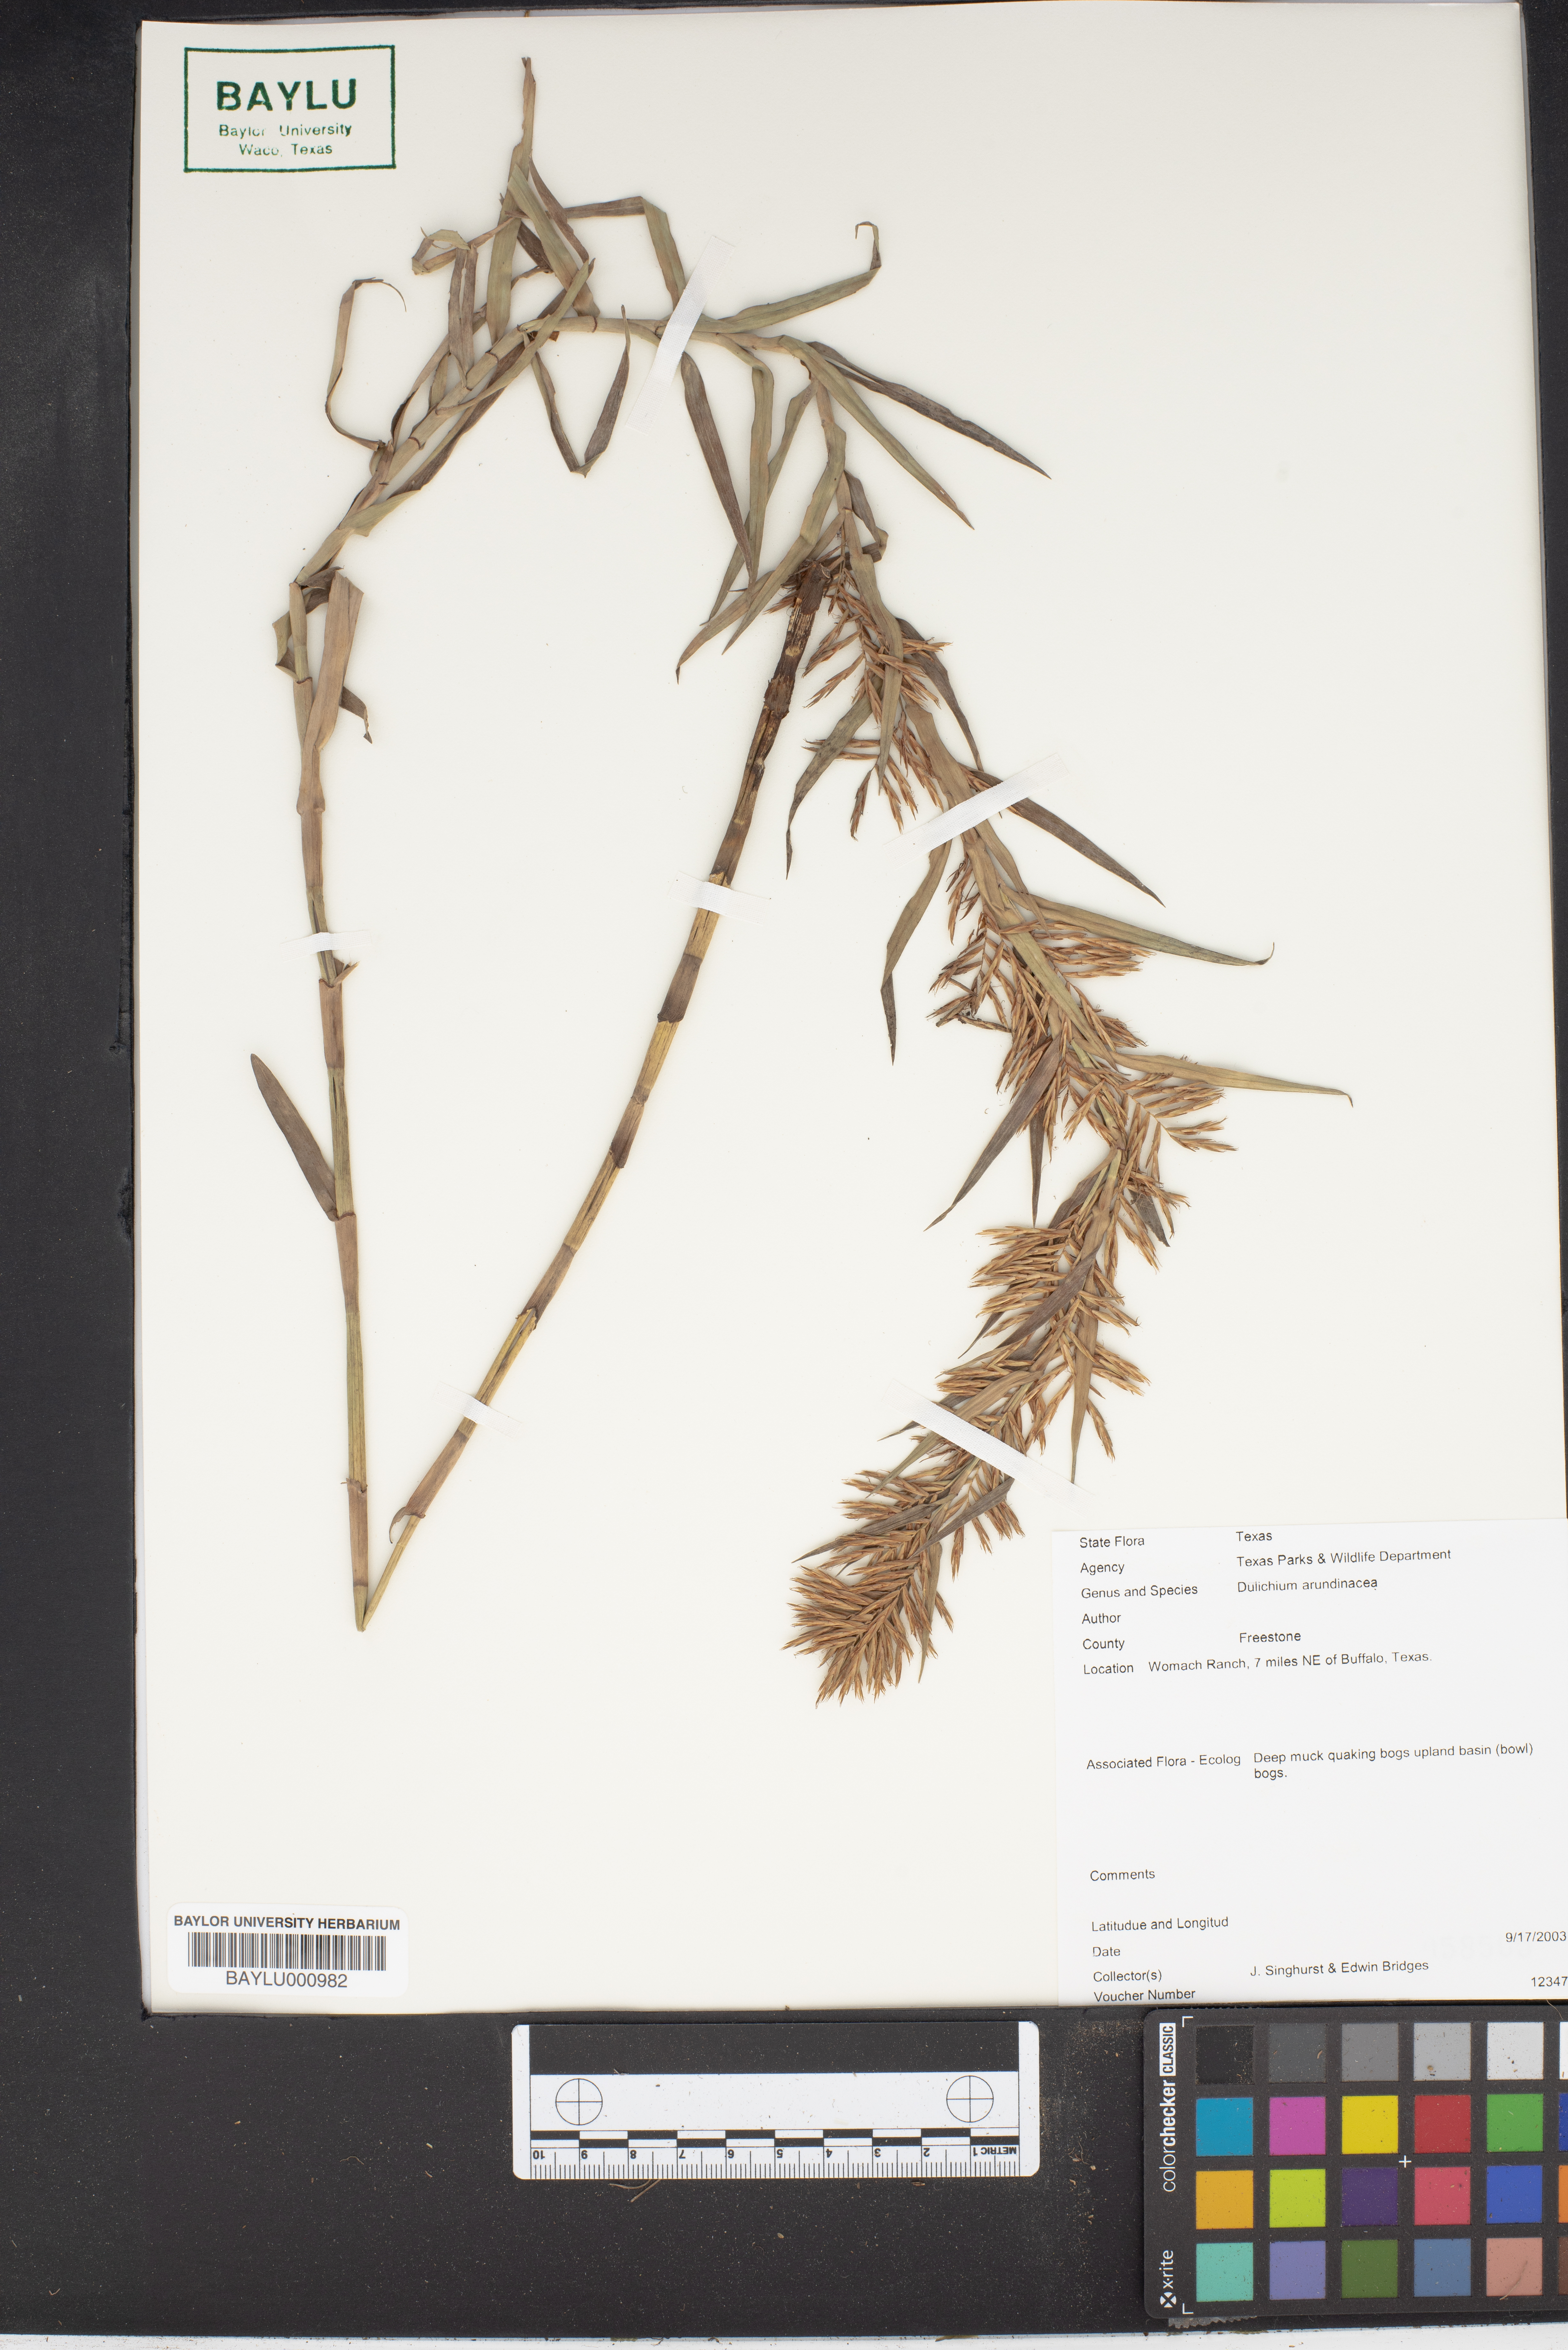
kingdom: Plantae
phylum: Tracheophyta
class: Liliopsida
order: Poales
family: Cyperaceae
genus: Dulichium
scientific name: Dulichium arundinaceum
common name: Three-way sedge
